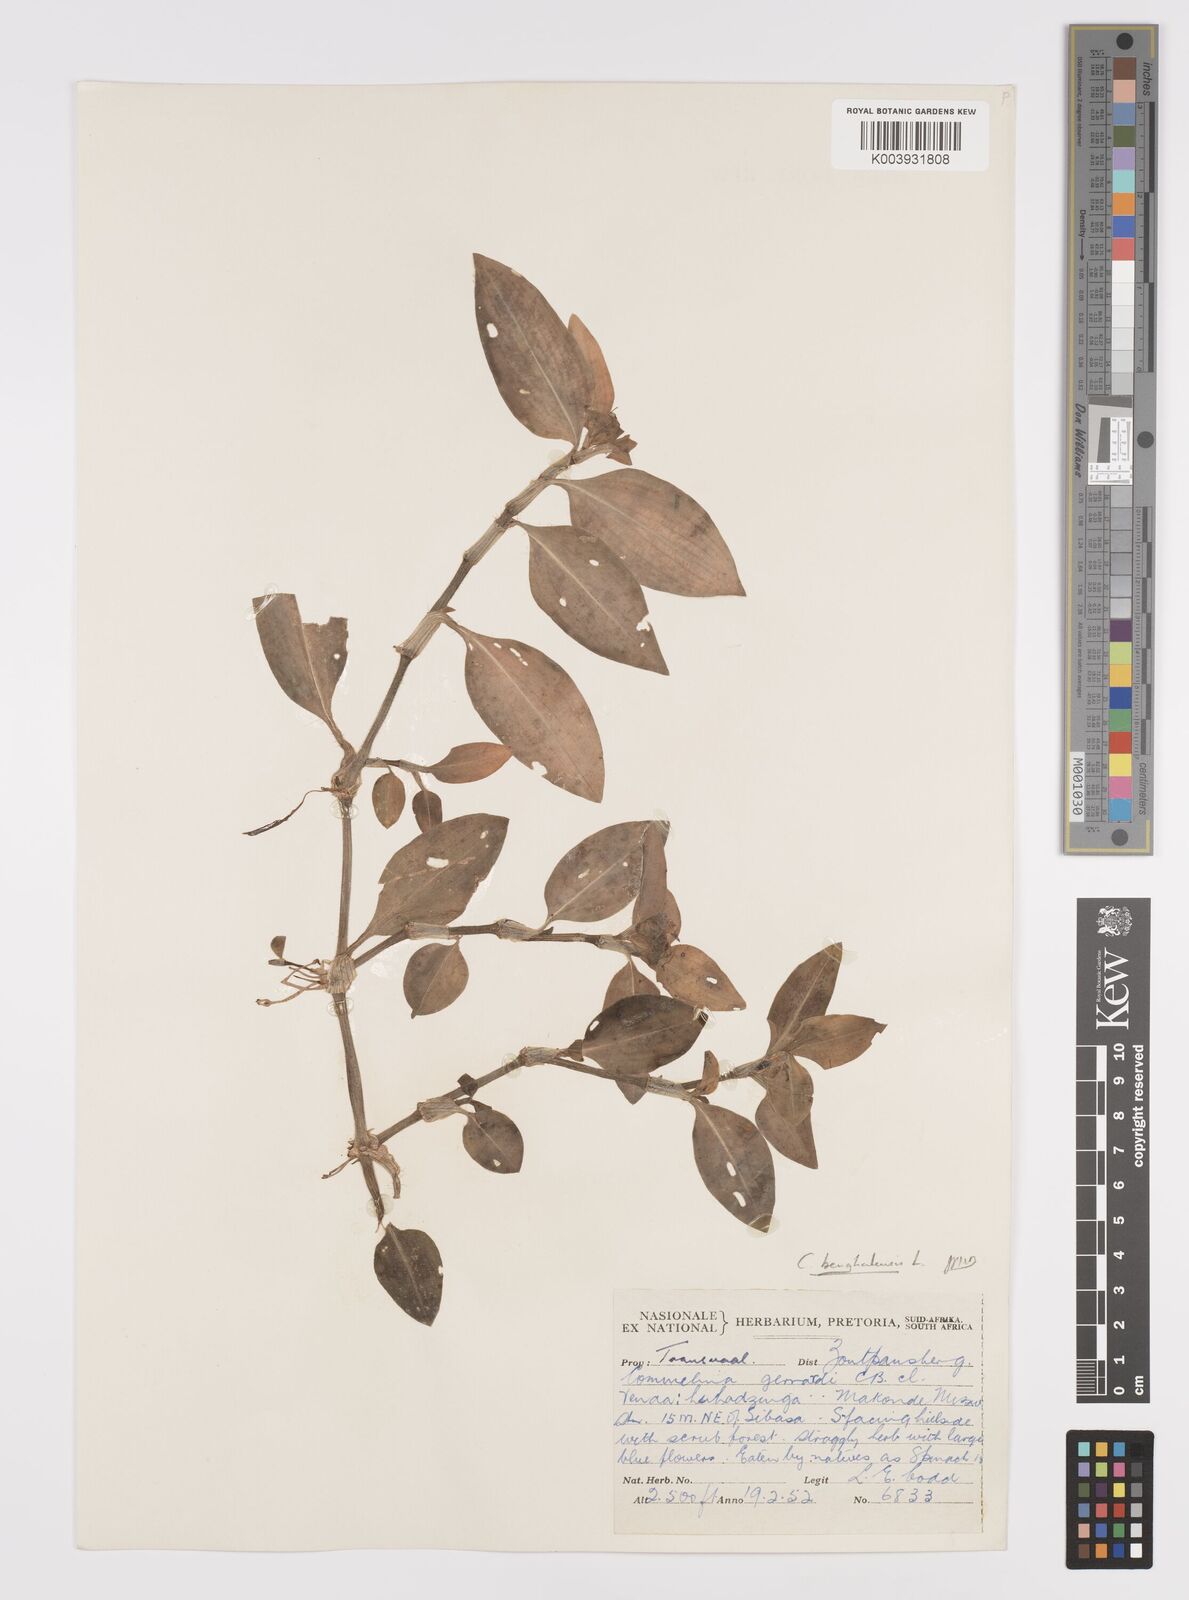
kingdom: Plantae
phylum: Tracheophyta
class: Liliopsida
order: Commelinales
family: Commelinaceae
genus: Commelina
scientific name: Commelina benghalensis
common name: Jio
